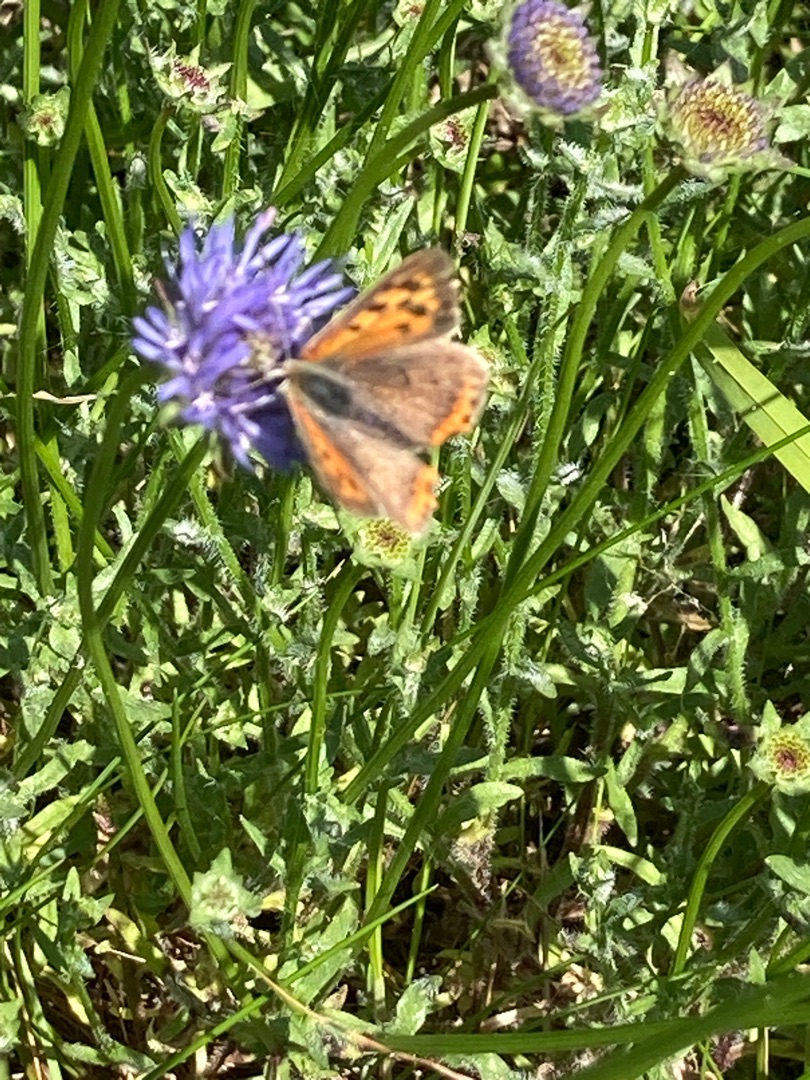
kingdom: Animalia
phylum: Arthropoda
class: Insecta
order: Lepidoptera
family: Lycaenidae
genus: Lycaena
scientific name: Lycaena phlaeas
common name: Lille ildfugl
